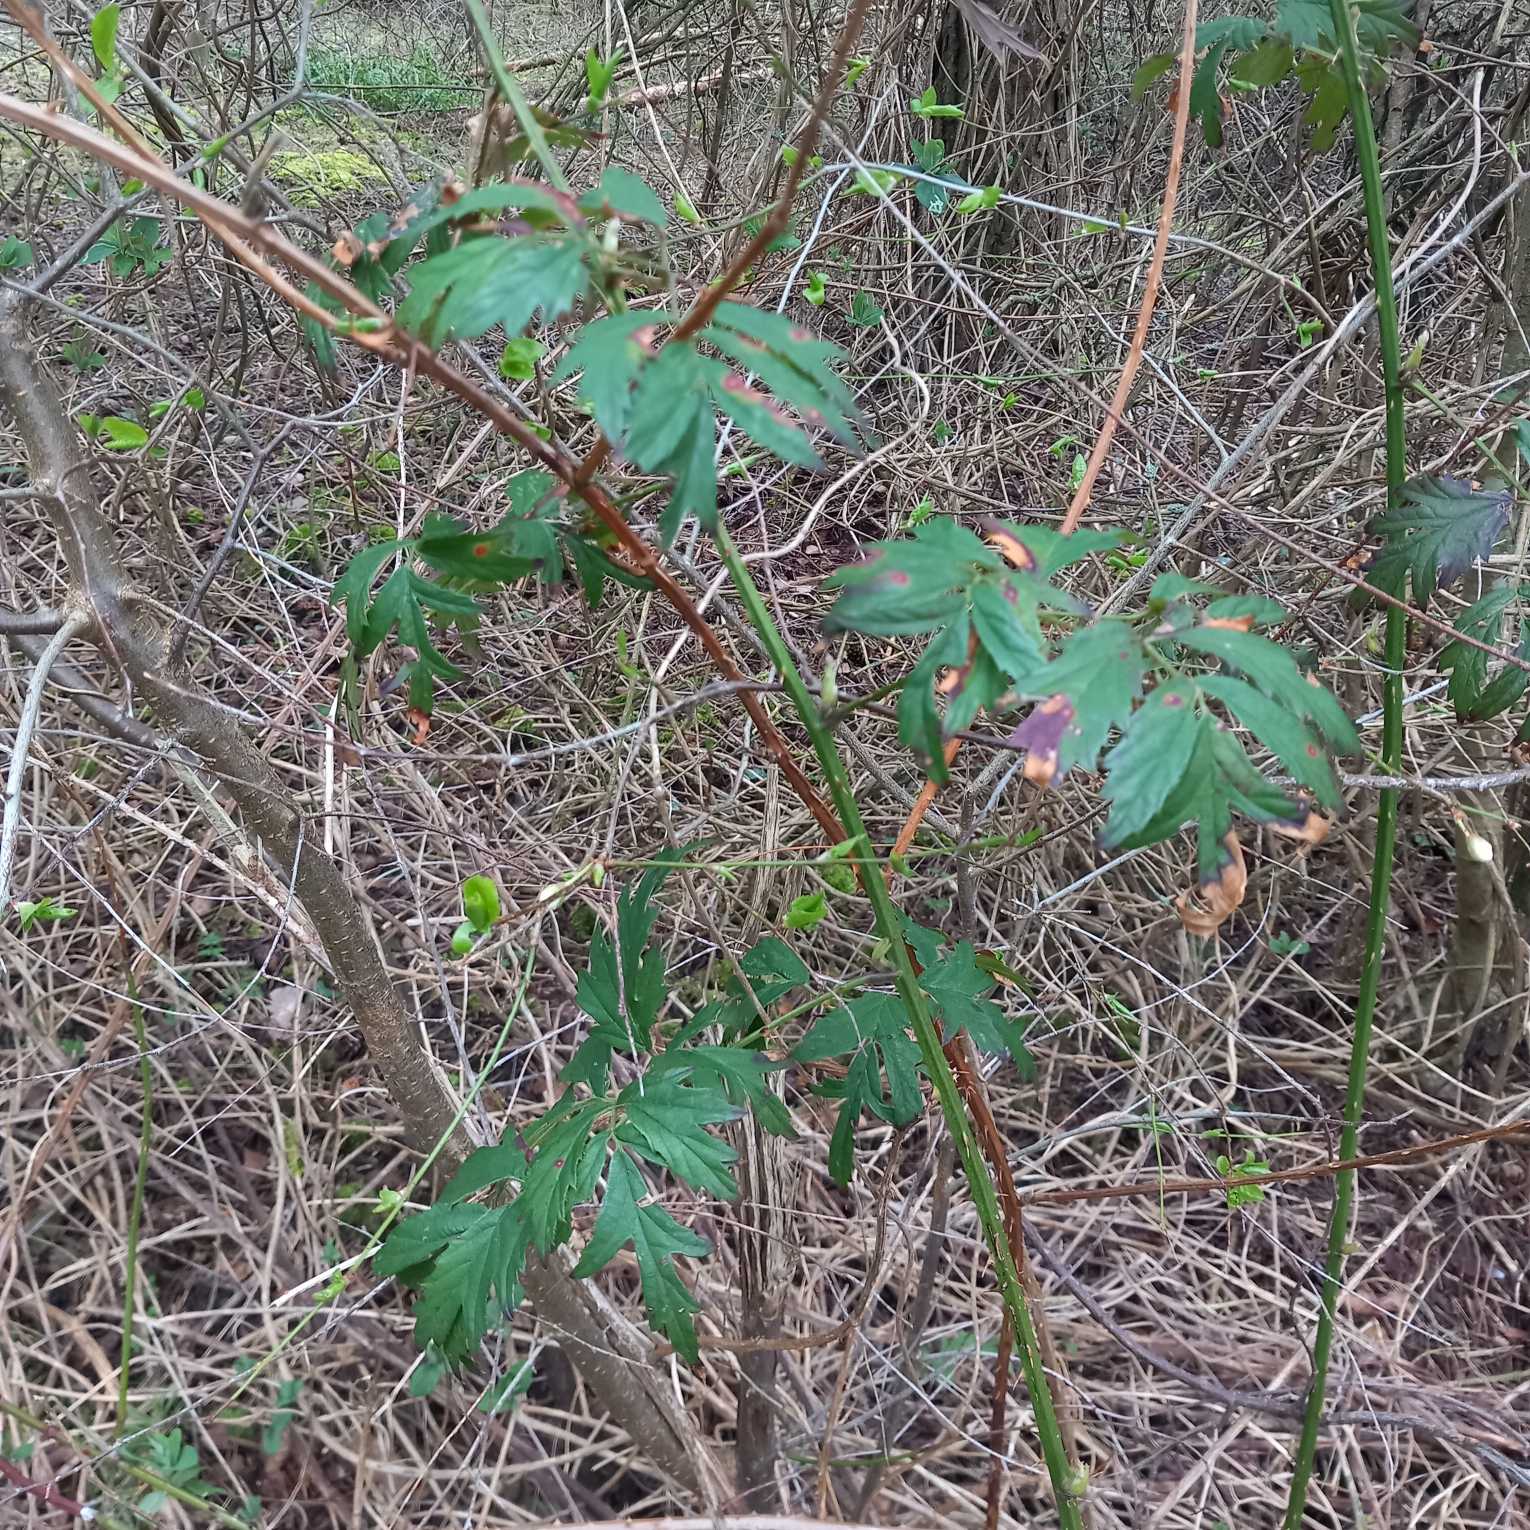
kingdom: Plantae
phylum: Tracheophyta
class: Magnoliopsida
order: Rosales
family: Rosaceae
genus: Rubus
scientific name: Rubus laciniatus
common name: Fliget brombær
